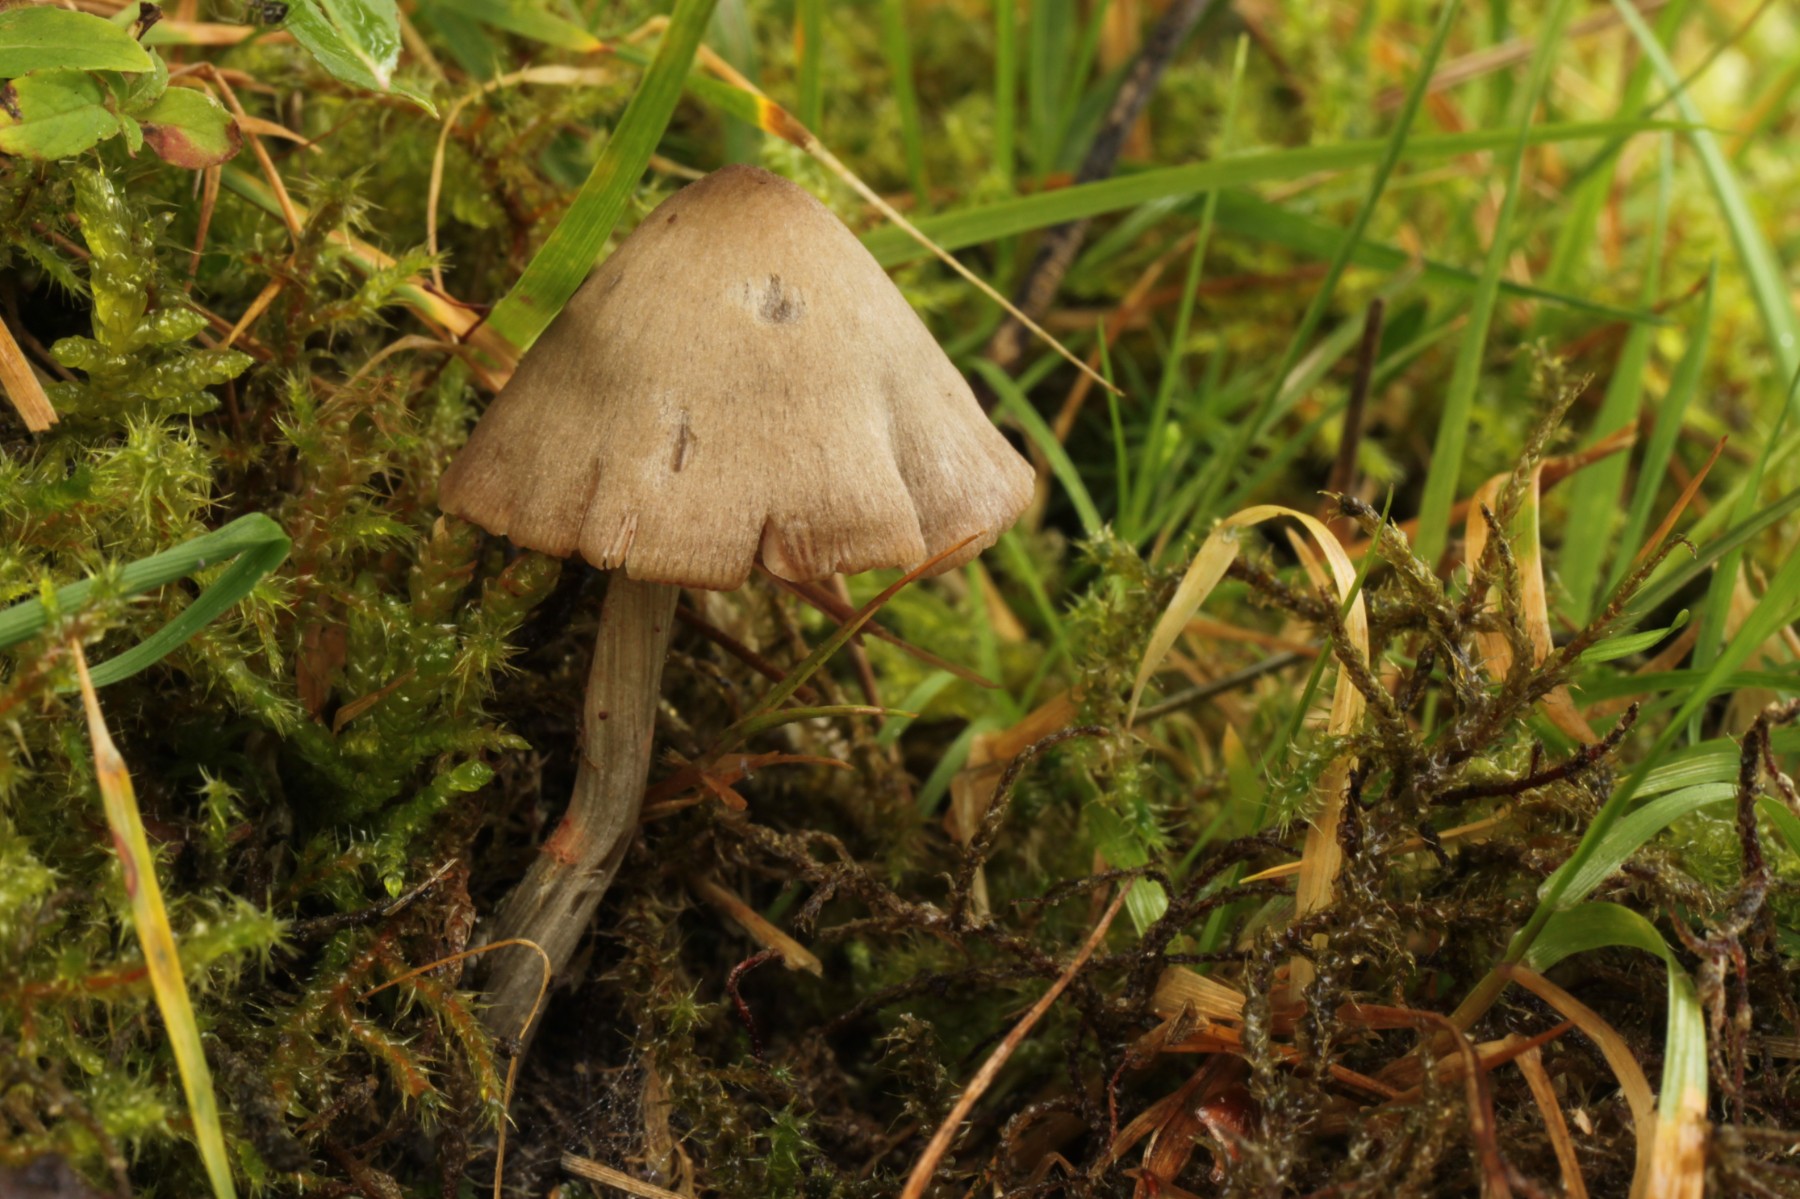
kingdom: Fungi
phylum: Basidiomycota
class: Agaricomycetes
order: Agaricales
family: Entolomataceae
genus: Entoloma
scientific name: Entoloma conferendum
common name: stjernesporet rødblad
